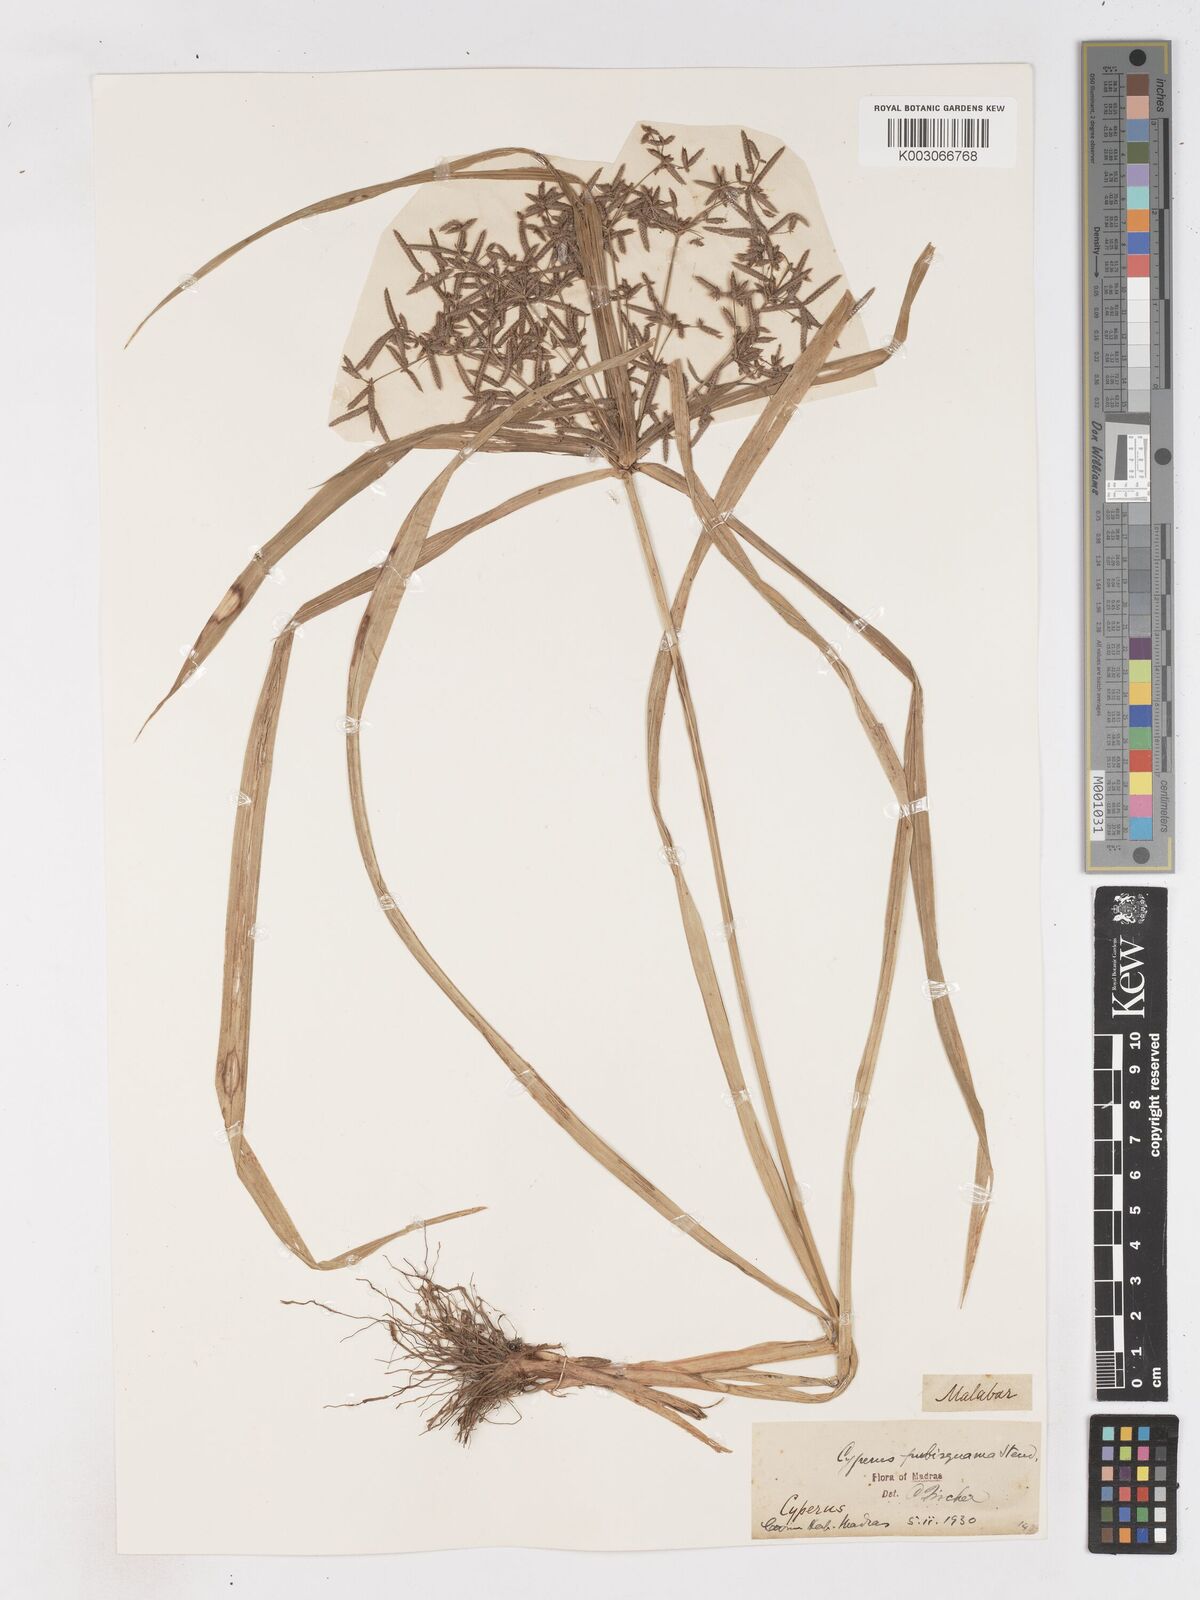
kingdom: Plantae
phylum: Tracheophyta
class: Liliopsida
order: Poales
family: Cyperaceae
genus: Cyperus
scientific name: Cyperus diffusus
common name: Dwarf umbrella grass
